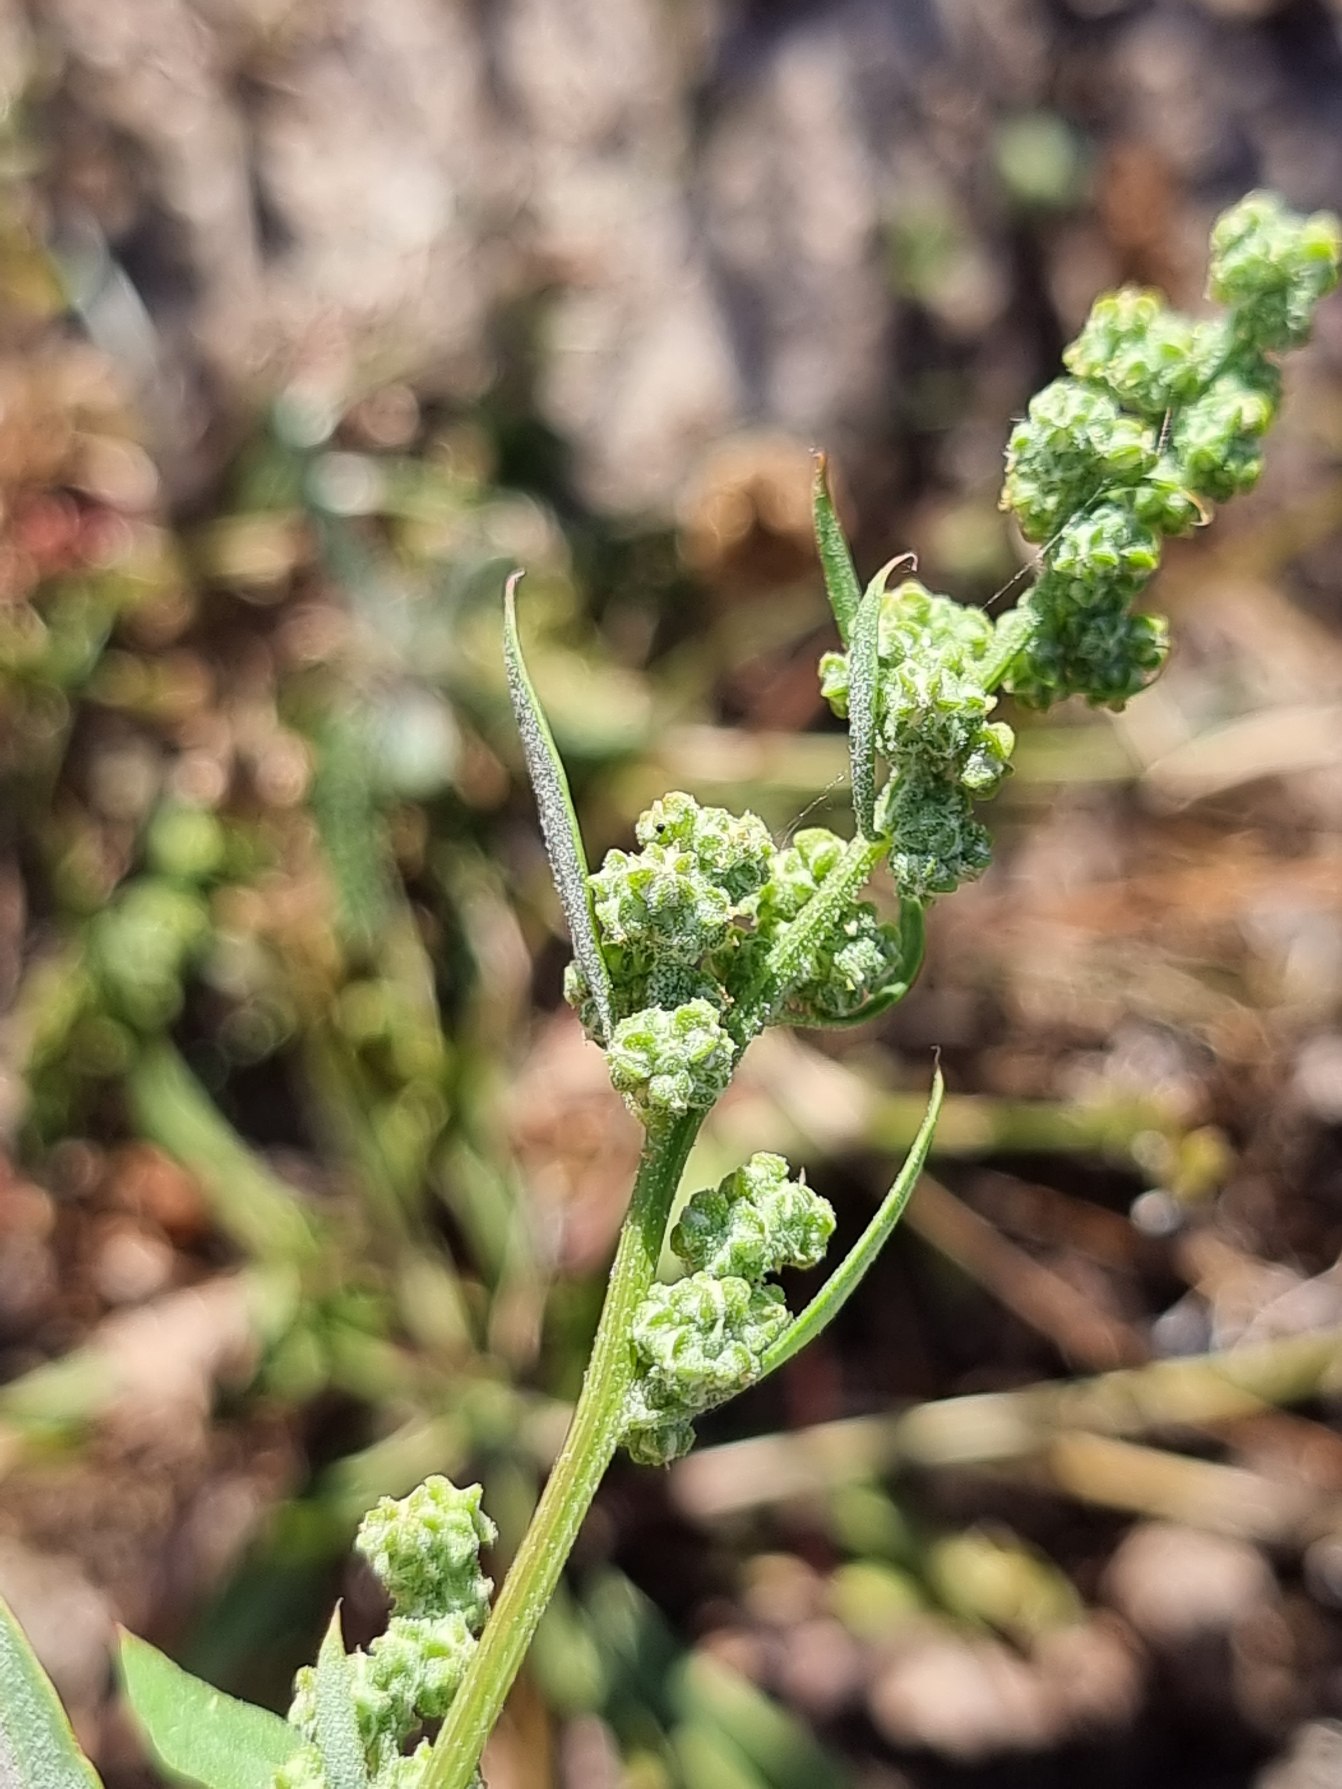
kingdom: Plantae
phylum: Tracheophyta
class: Magnoliopsida
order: Caryophyllales
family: Amaranthaceae
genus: Chenopodium
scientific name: Chenopodium album
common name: Hvidmelet gåsefod
